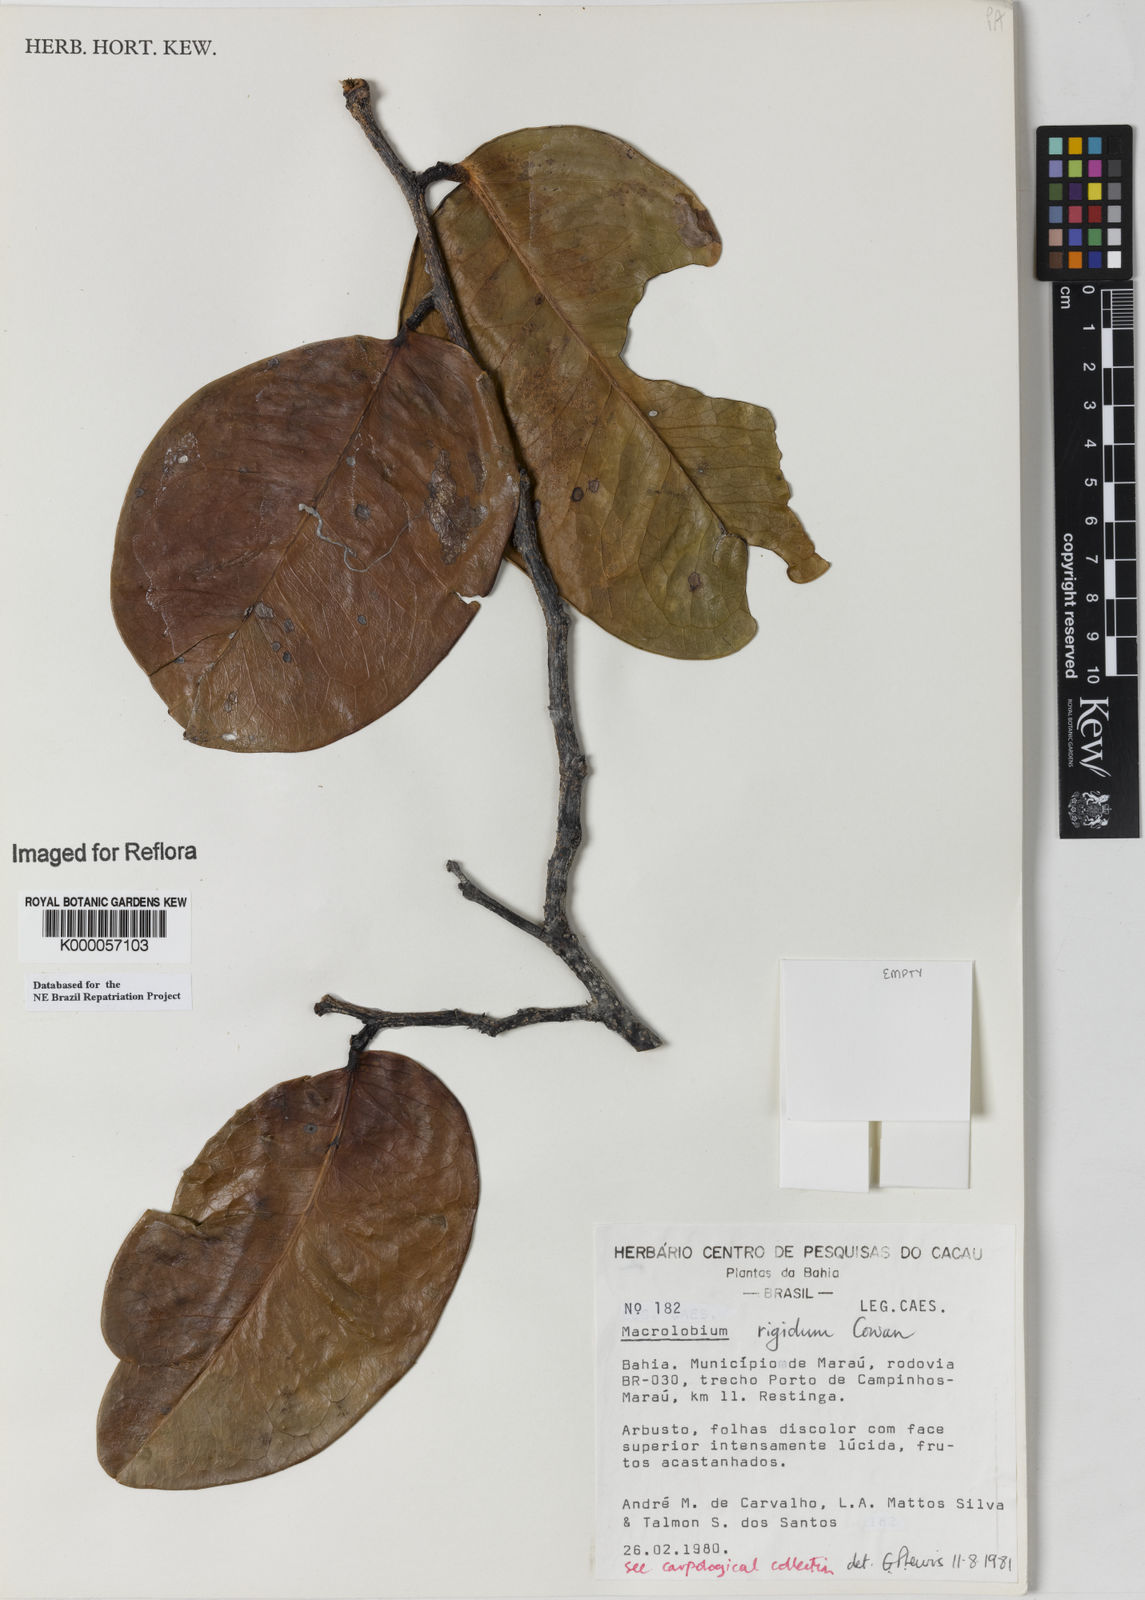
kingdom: Plantae
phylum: Tracheophyta
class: Magnoliopsida
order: Fabales
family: Fabaceae
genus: Macrolobium
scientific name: Macrolobium rigidum
